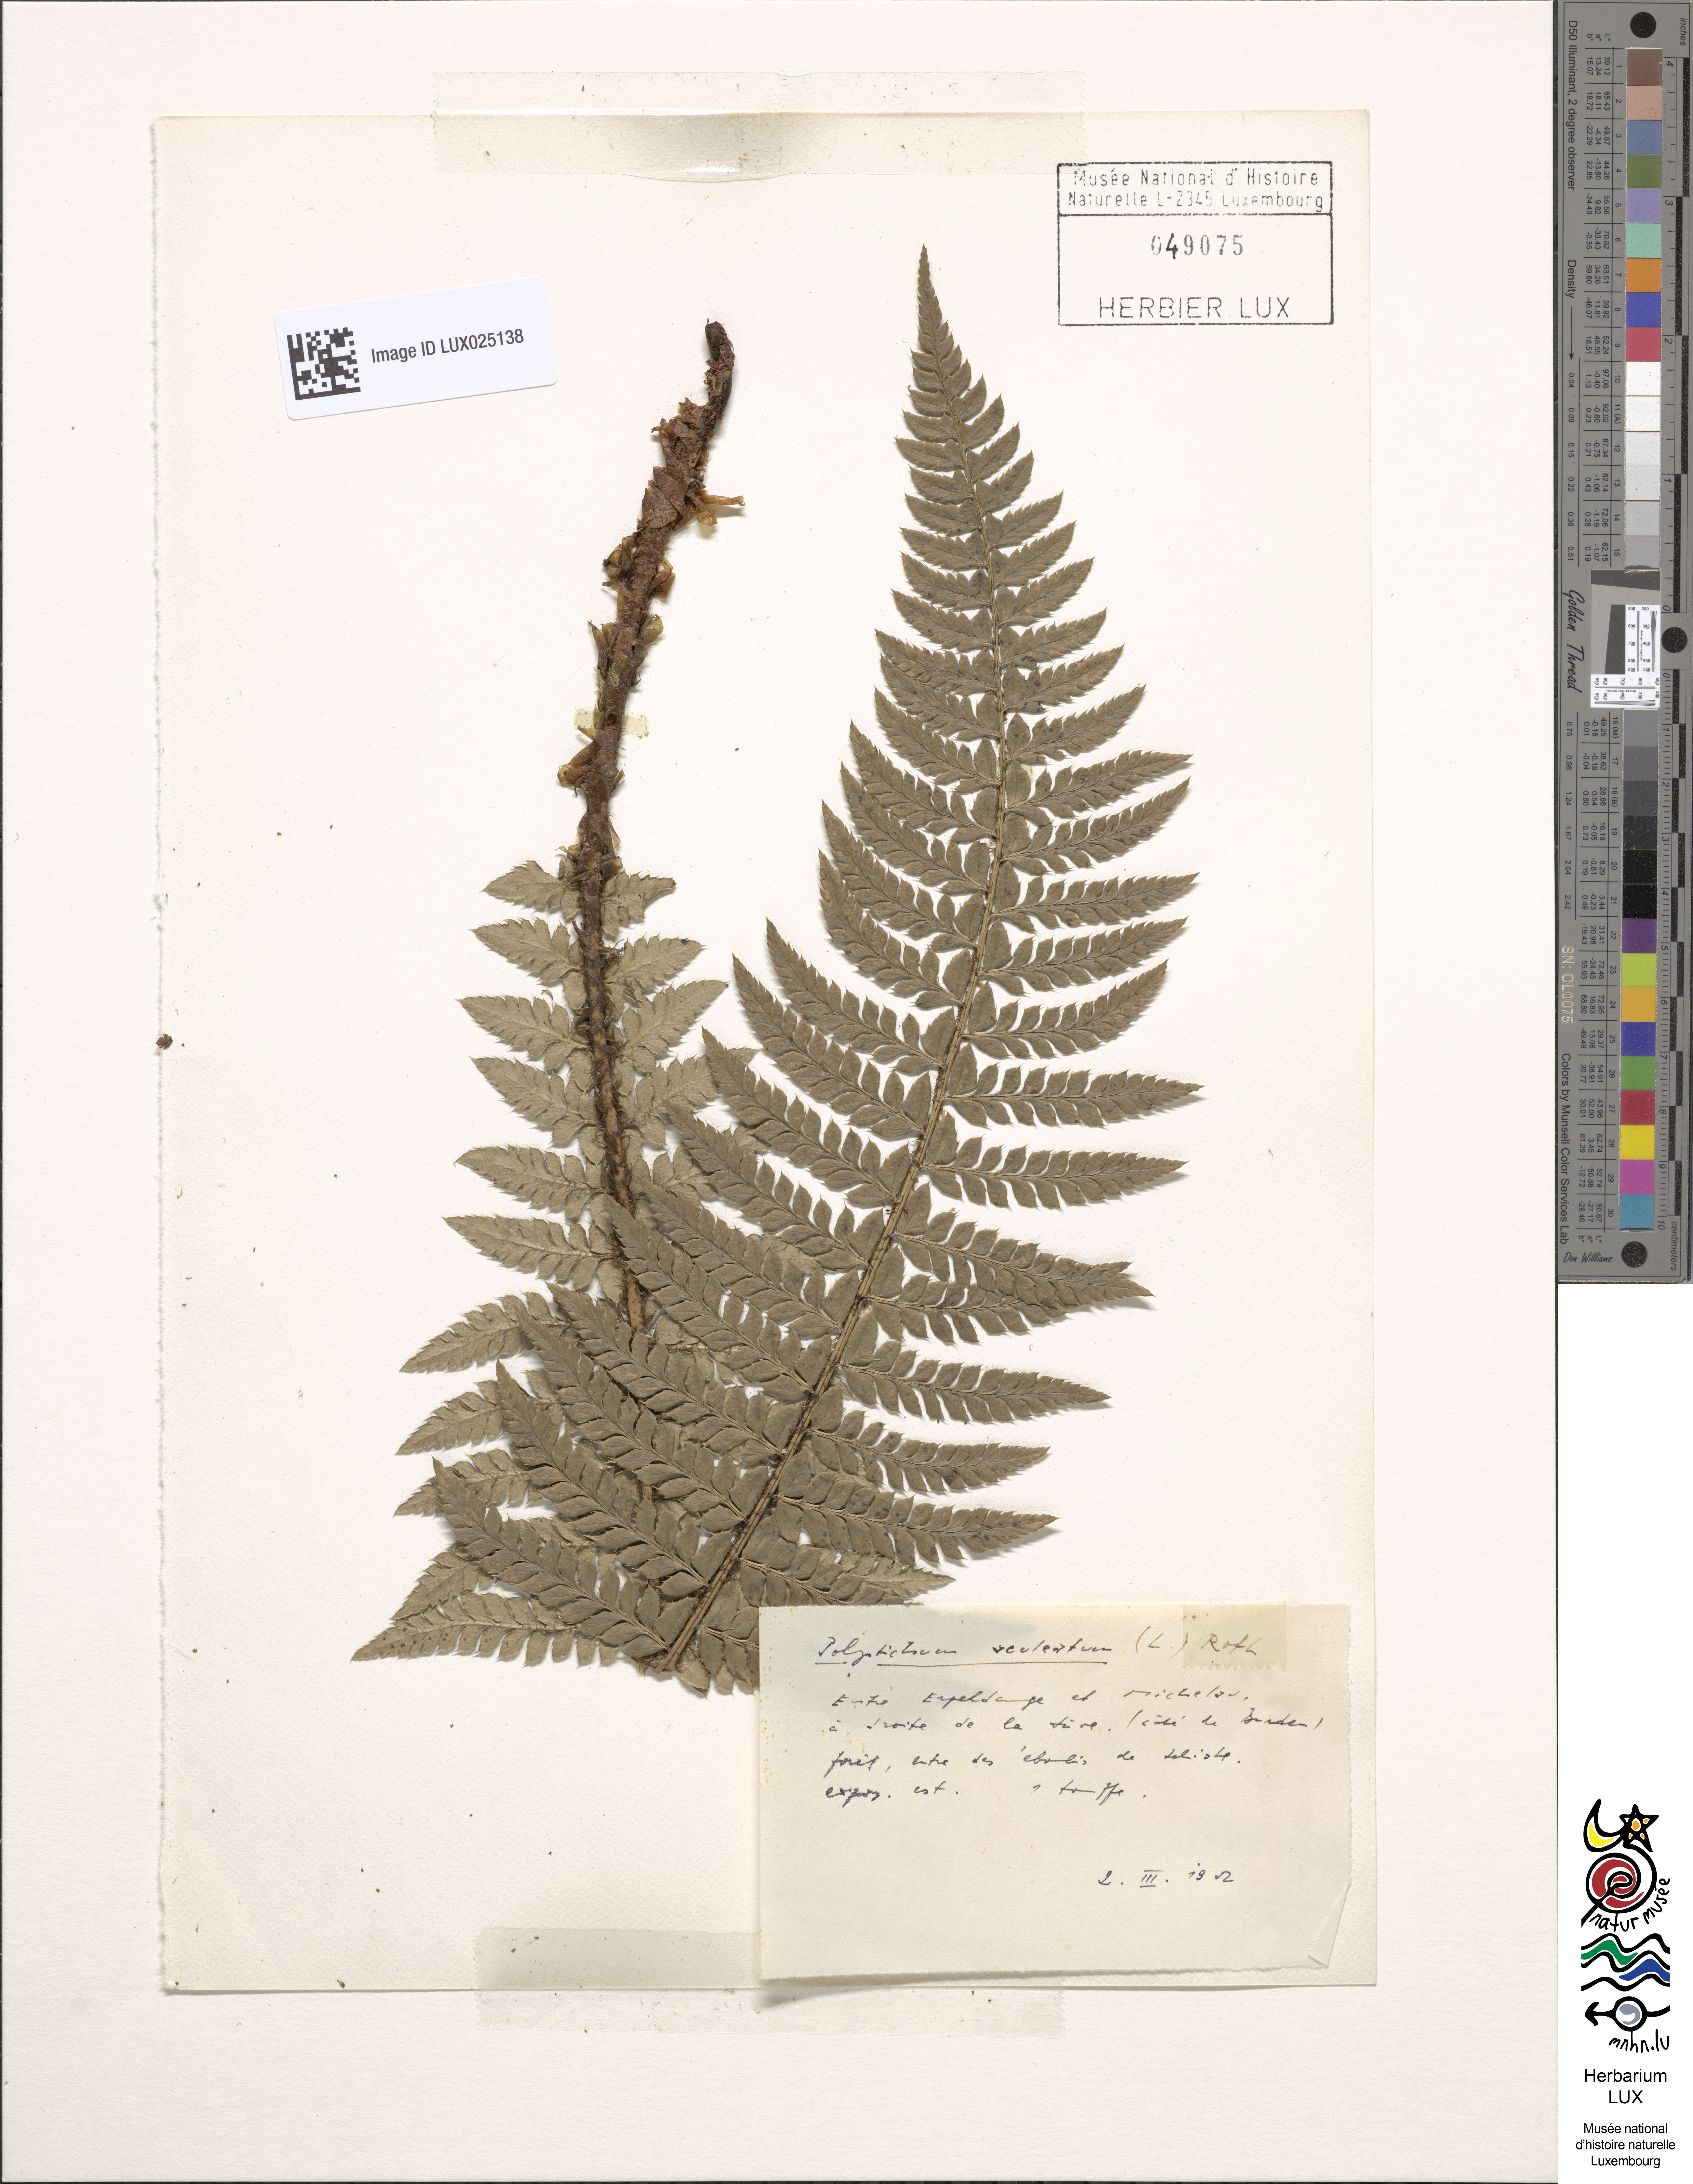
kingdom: Plantae
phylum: Tracheophyta
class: Polypodiopsida
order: Polypodiales
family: Dryopteridaceae
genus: Polystichum
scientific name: Polystichum aculeatum
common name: Hard shield-fern
